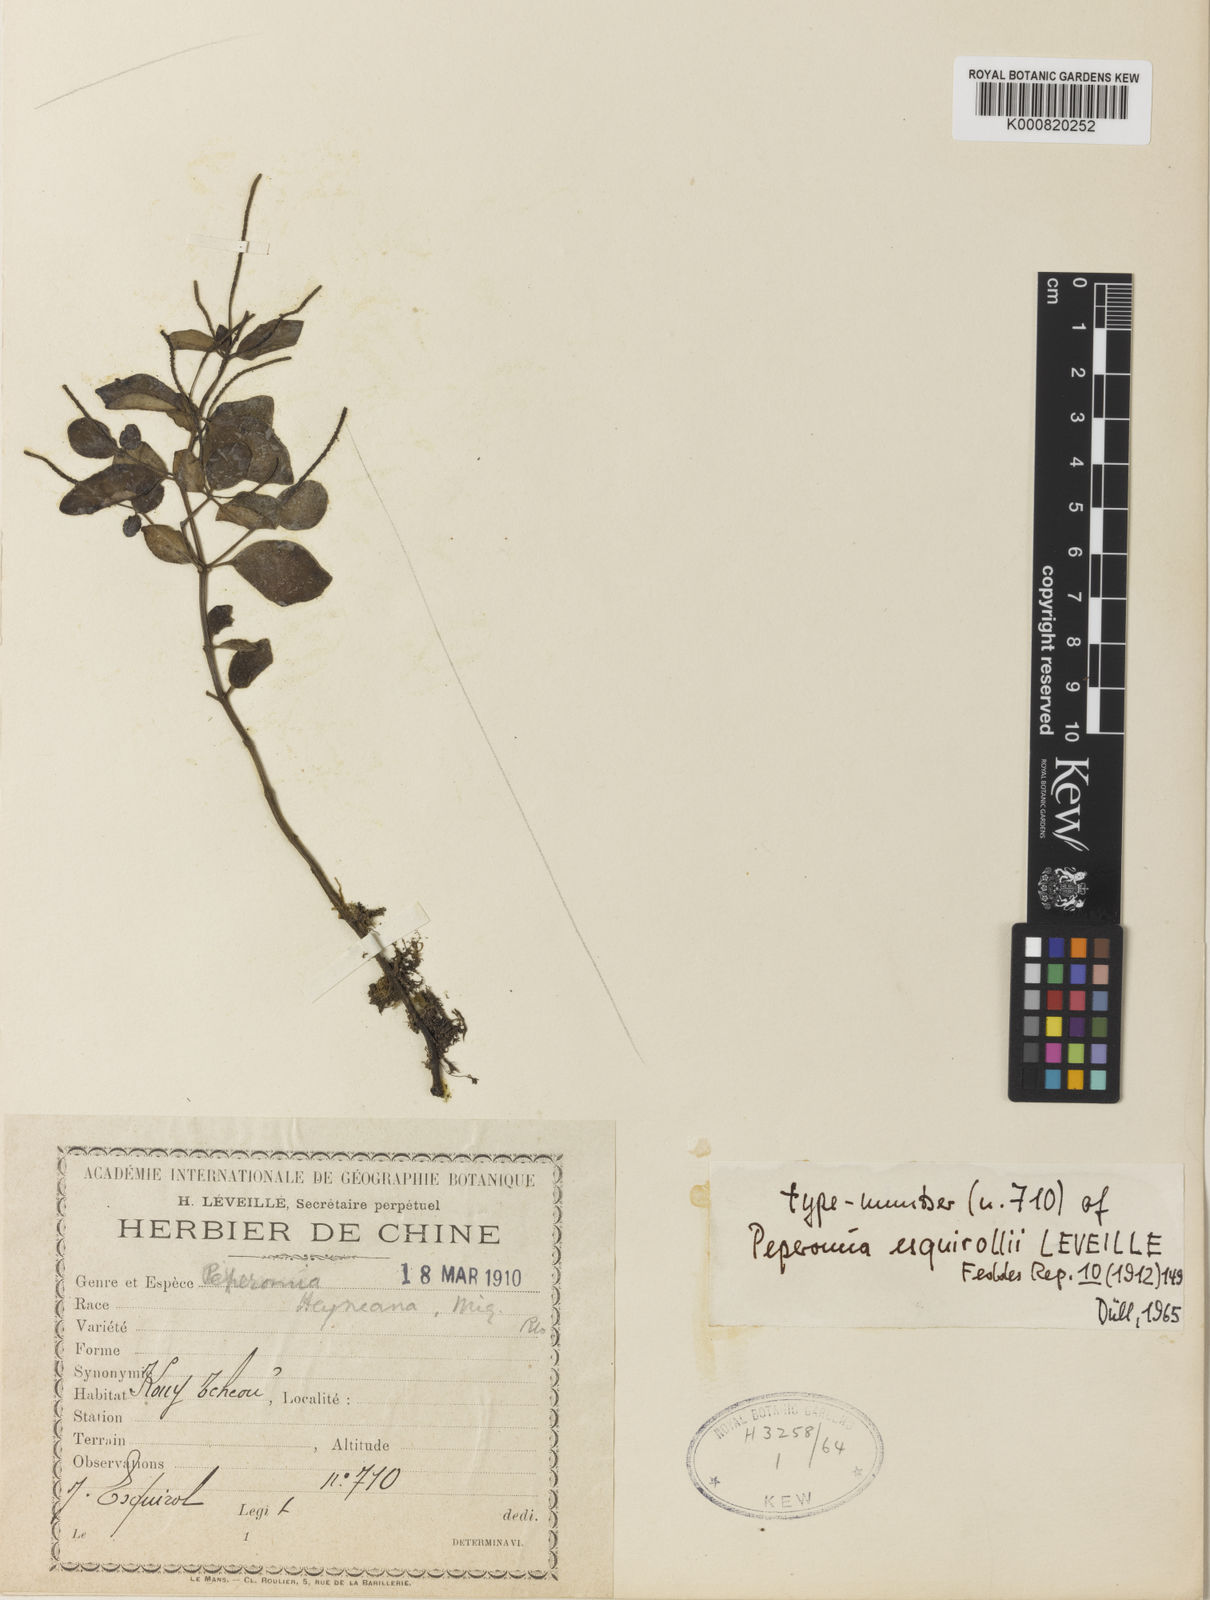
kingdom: Plantae
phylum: Tracheophyta
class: Magnoliopsida
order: Piperales
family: Piperaceae
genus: Peperomia
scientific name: Peperomia heyneana
